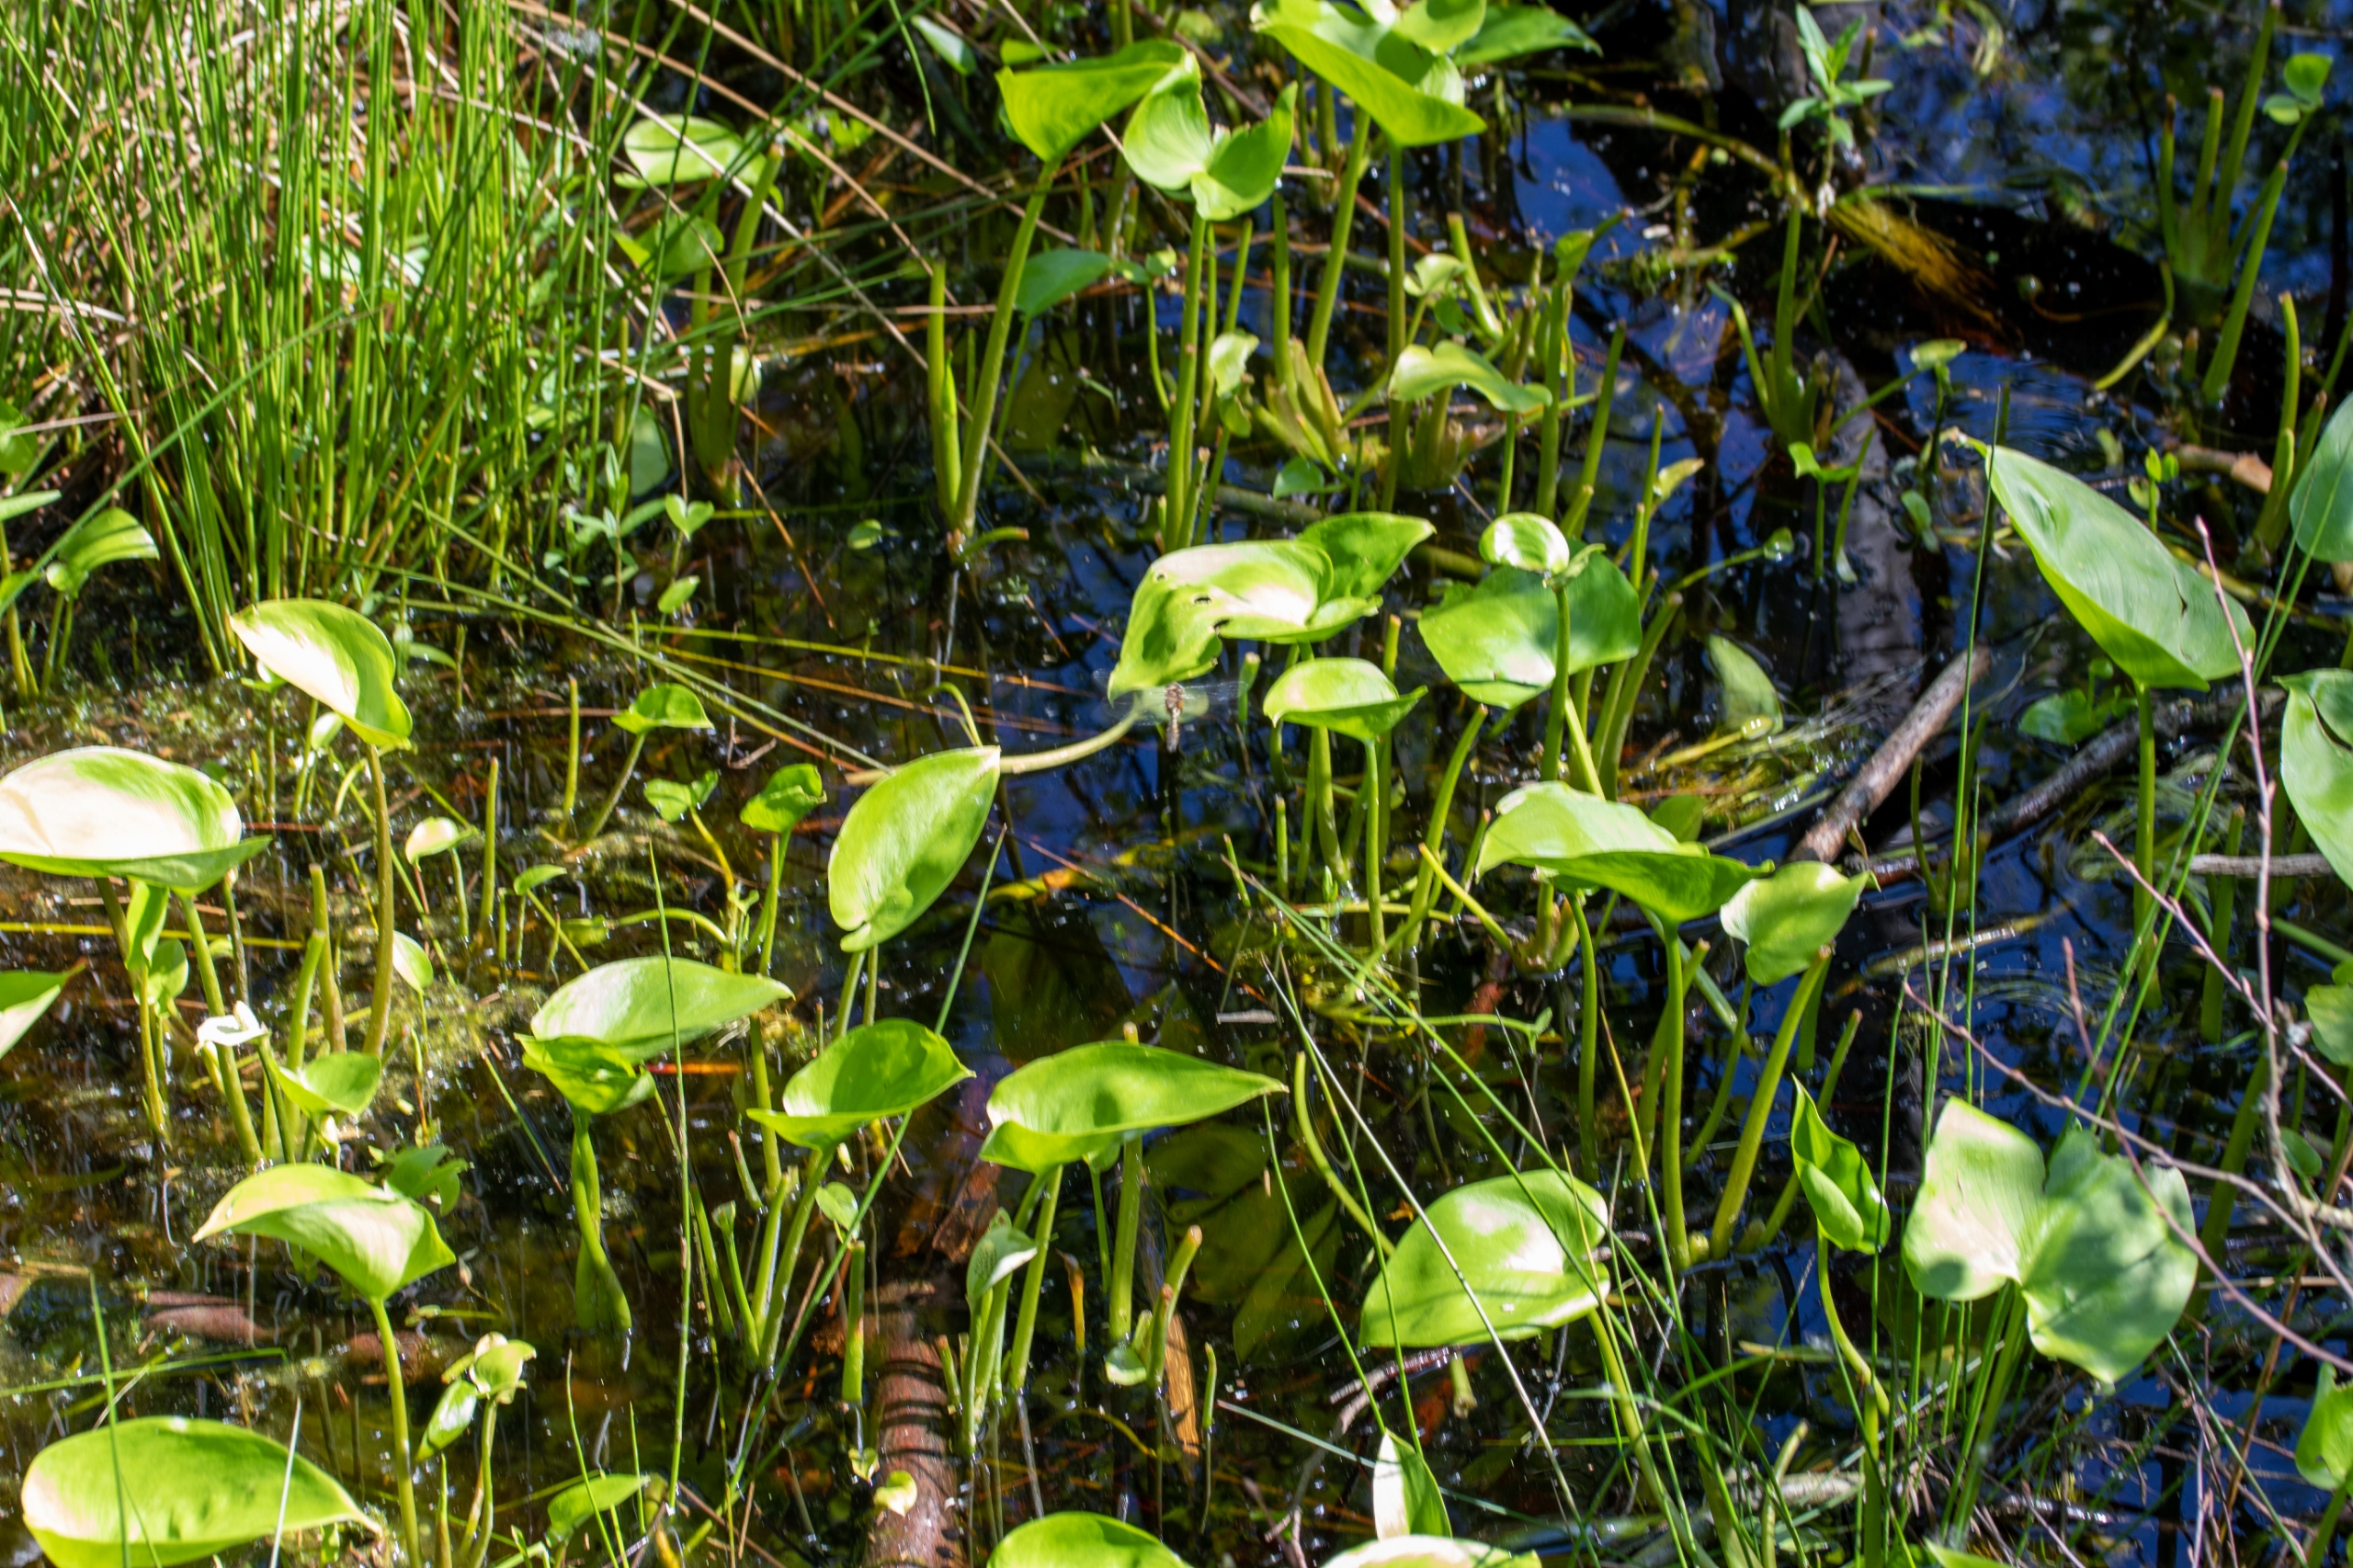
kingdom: Plantae
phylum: Tracheophyta
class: Liliopsida
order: Alismatales
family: Araceae
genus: Calla
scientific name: Calla palustris
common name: Kærmysse
